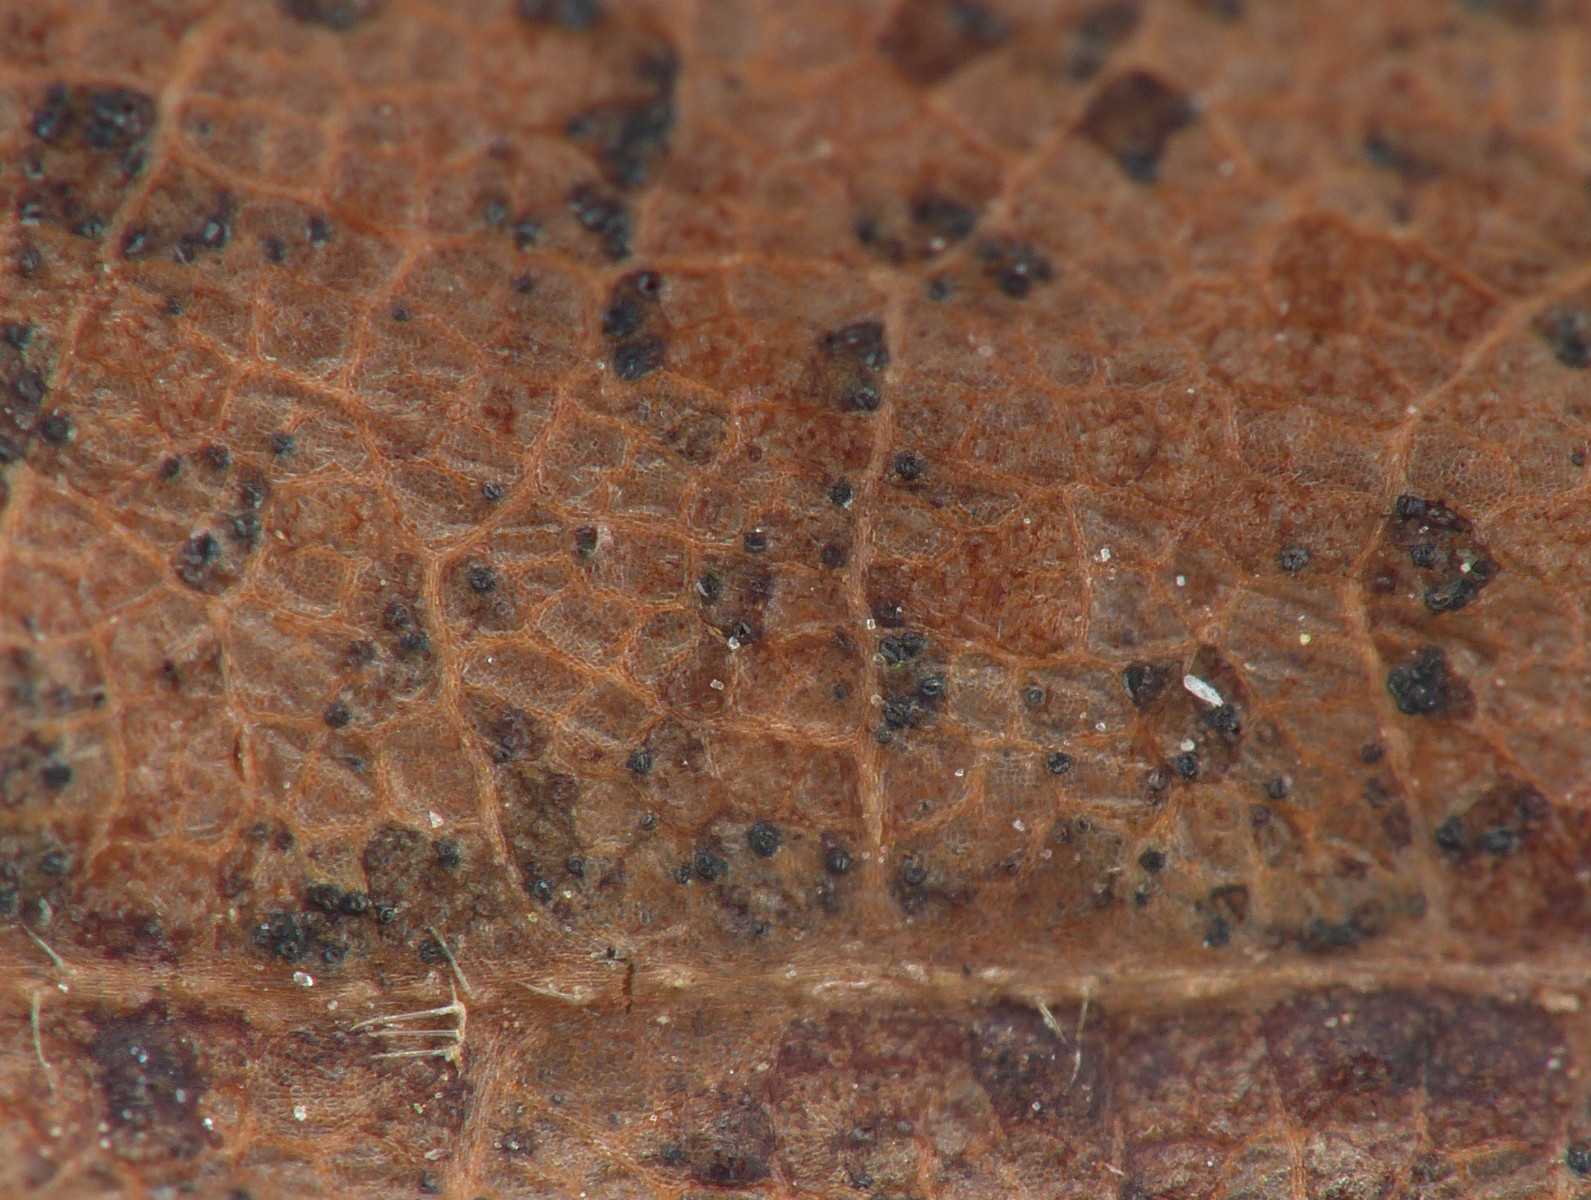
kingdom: Fungi
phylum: Ascomycota
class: Sordariomycetes
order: Diaporthales
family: Gnomoniaceae
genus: Ophiognomonia
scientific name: Ophiognomonia melanostyla
